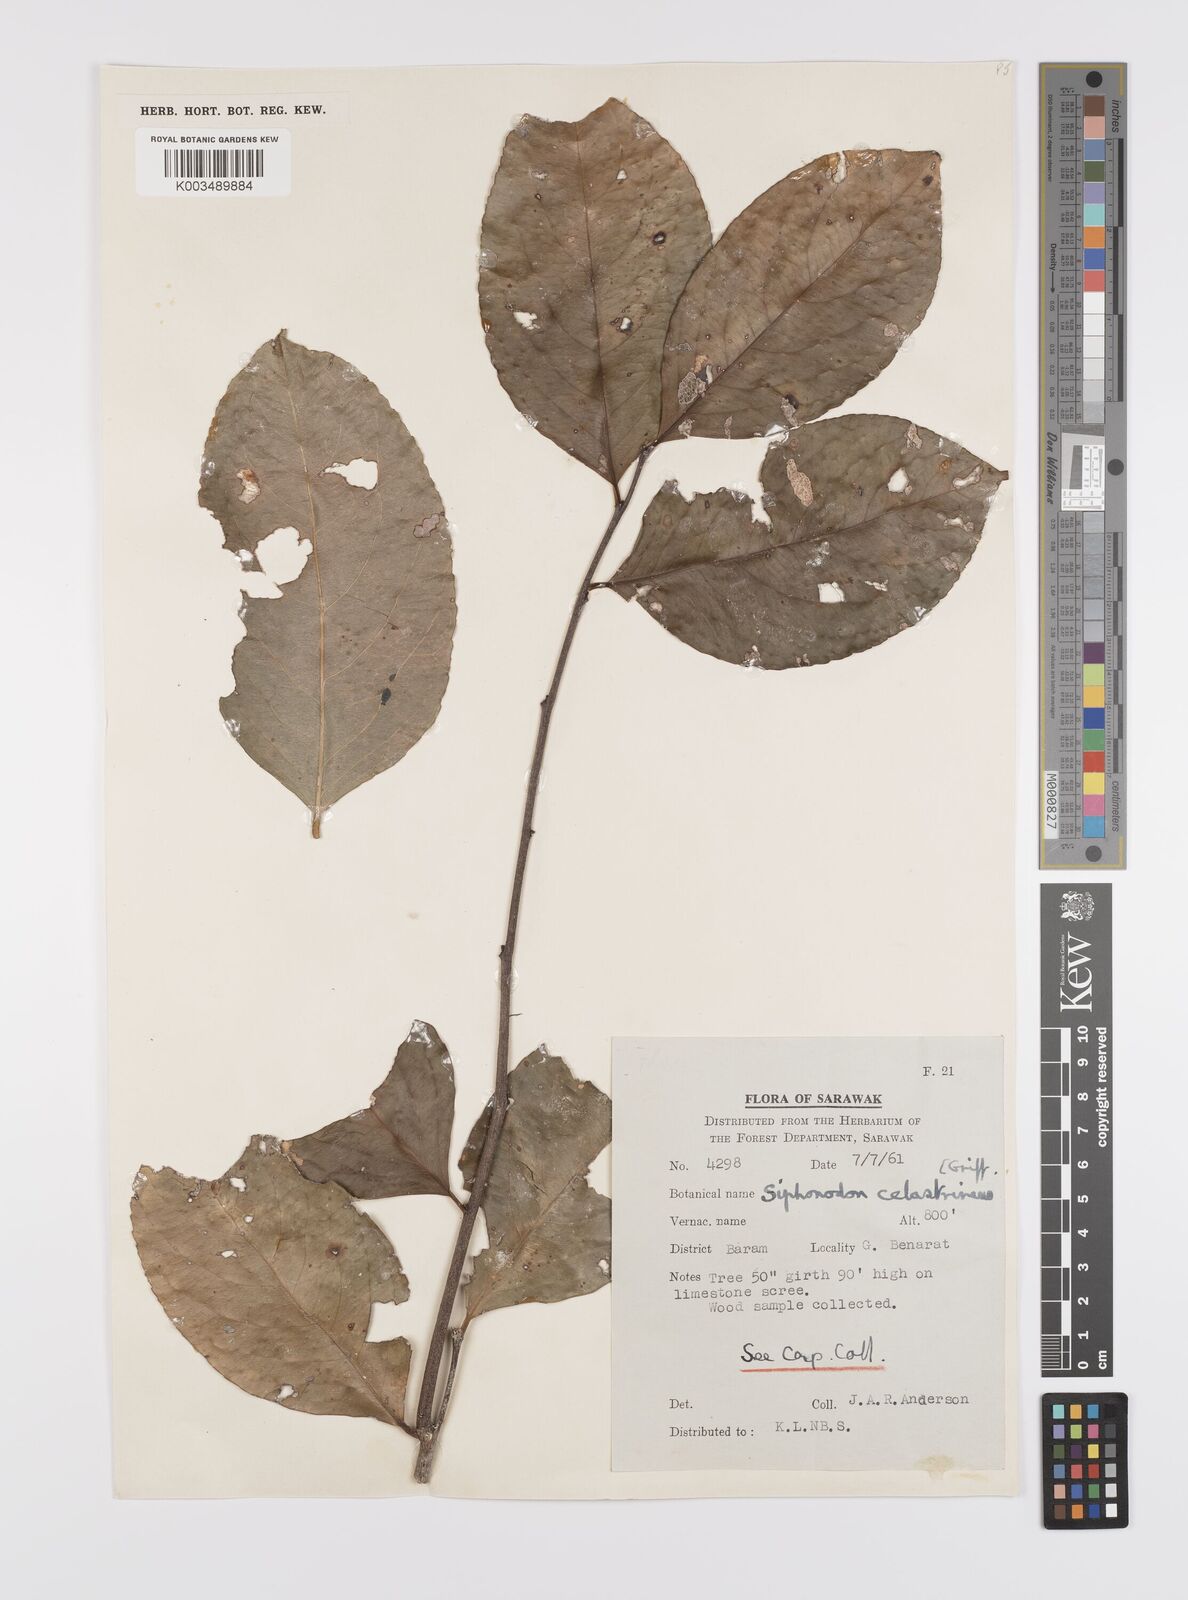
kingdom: Plantae
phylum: Tracheophyta
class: Magnoliopsida
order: Celastrales
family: Celastraceae
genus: Siphonodon
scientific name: Siphonodon celastrineus
